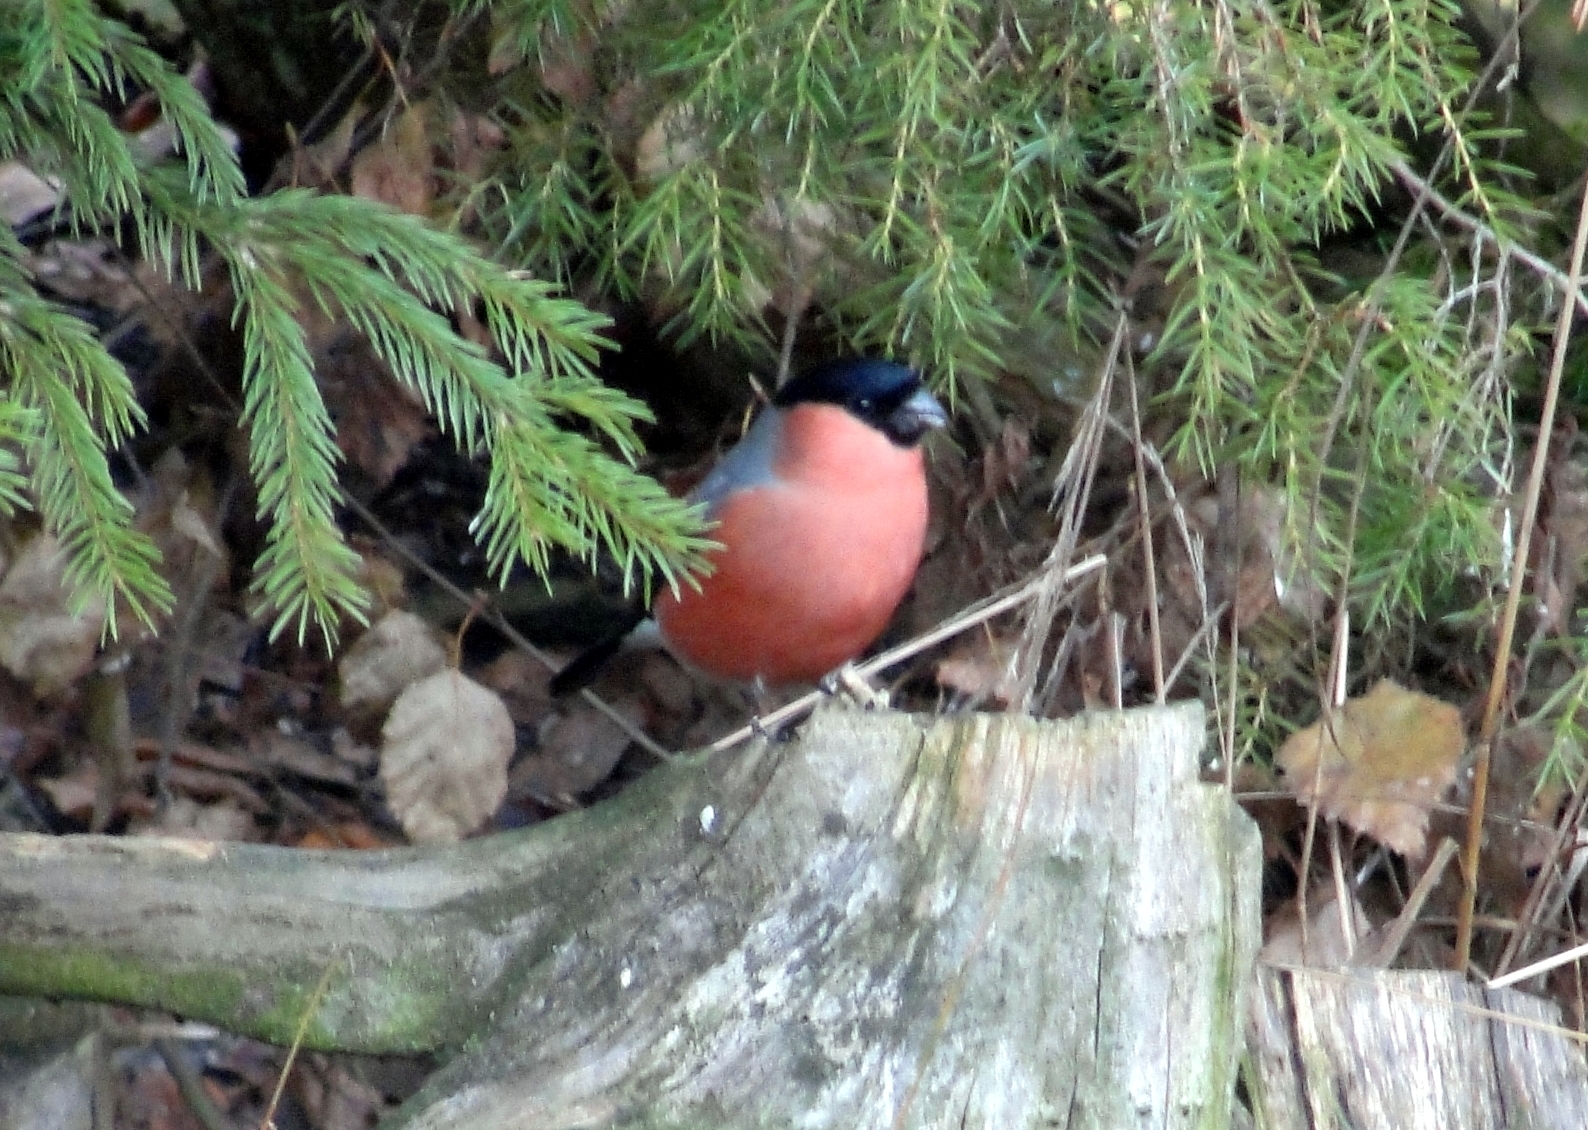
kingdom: Animalia
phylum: Chordata
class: Aves
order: Passeriformes
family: Fringillidae
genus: Pyrrhula
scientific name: Pyrrhula pyrrhula
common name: Eurasian bullfinch
